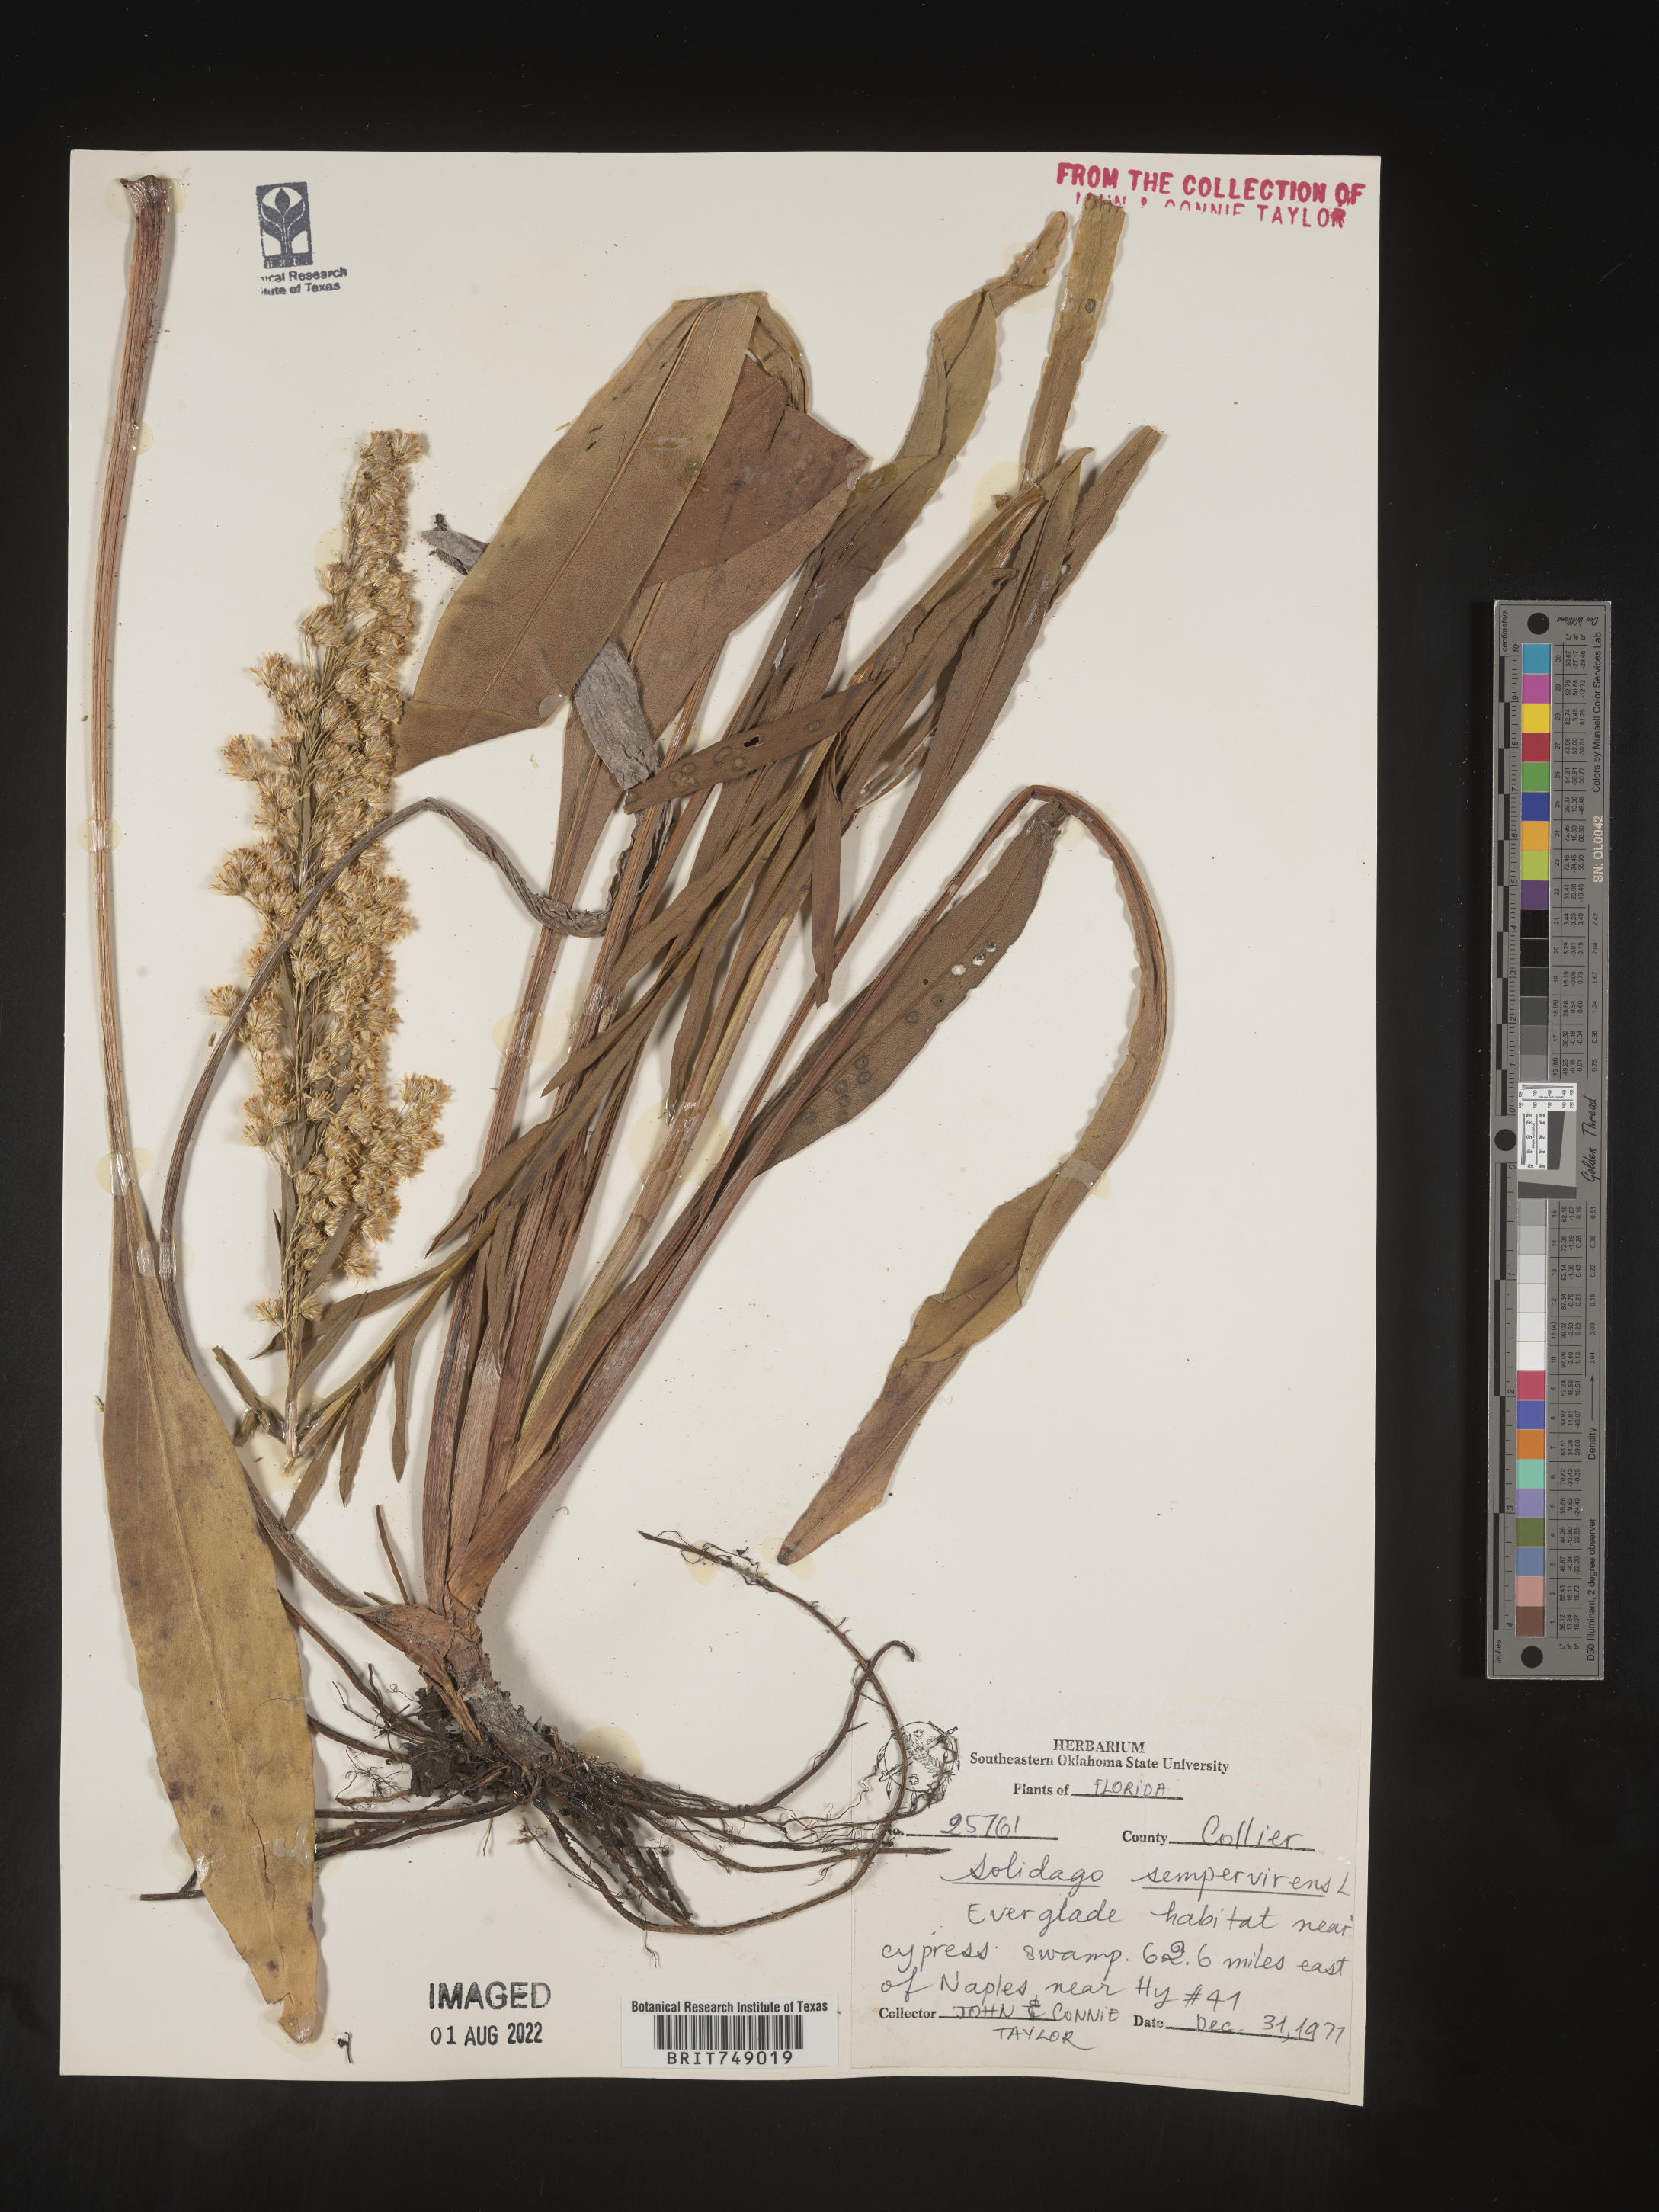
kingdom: Plantae
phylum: Tracheophyta
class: Magnoliopsida
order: Asterales
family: Asteraceae
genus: Solidago
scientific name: Solidago sempervirens
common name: Salt-marsh goldenrod
